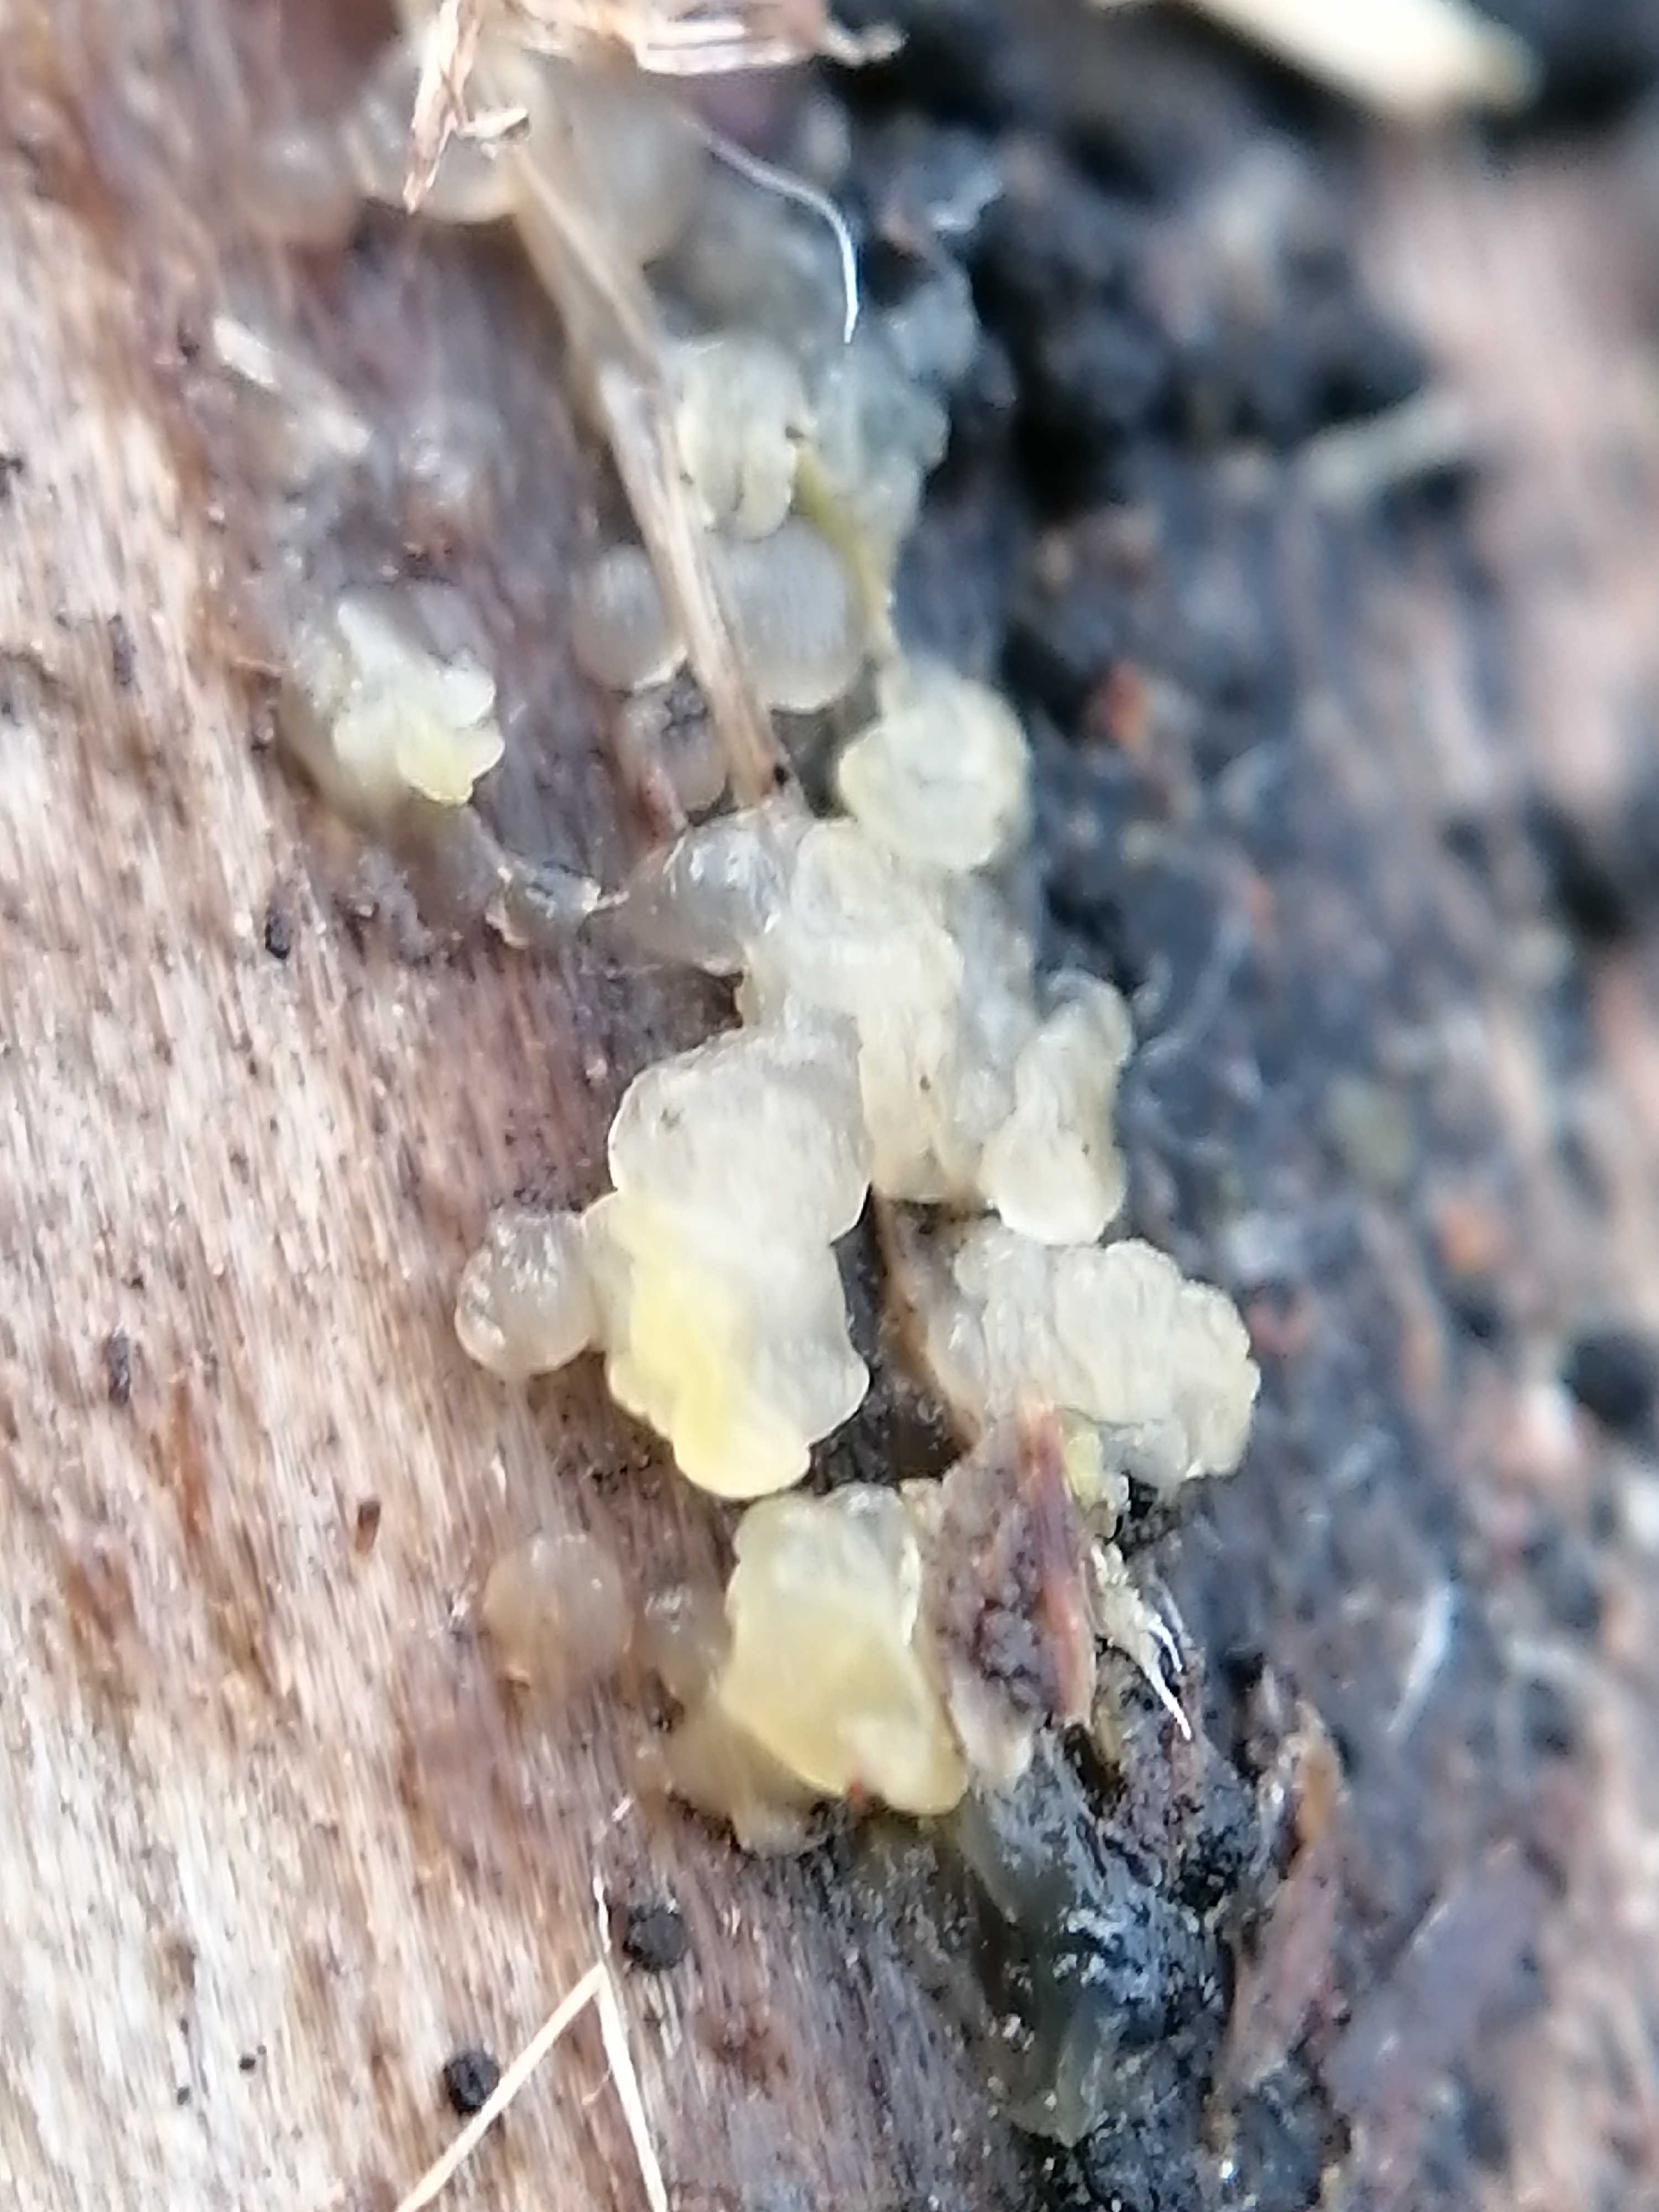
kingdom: Fungi
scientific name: Fungi
